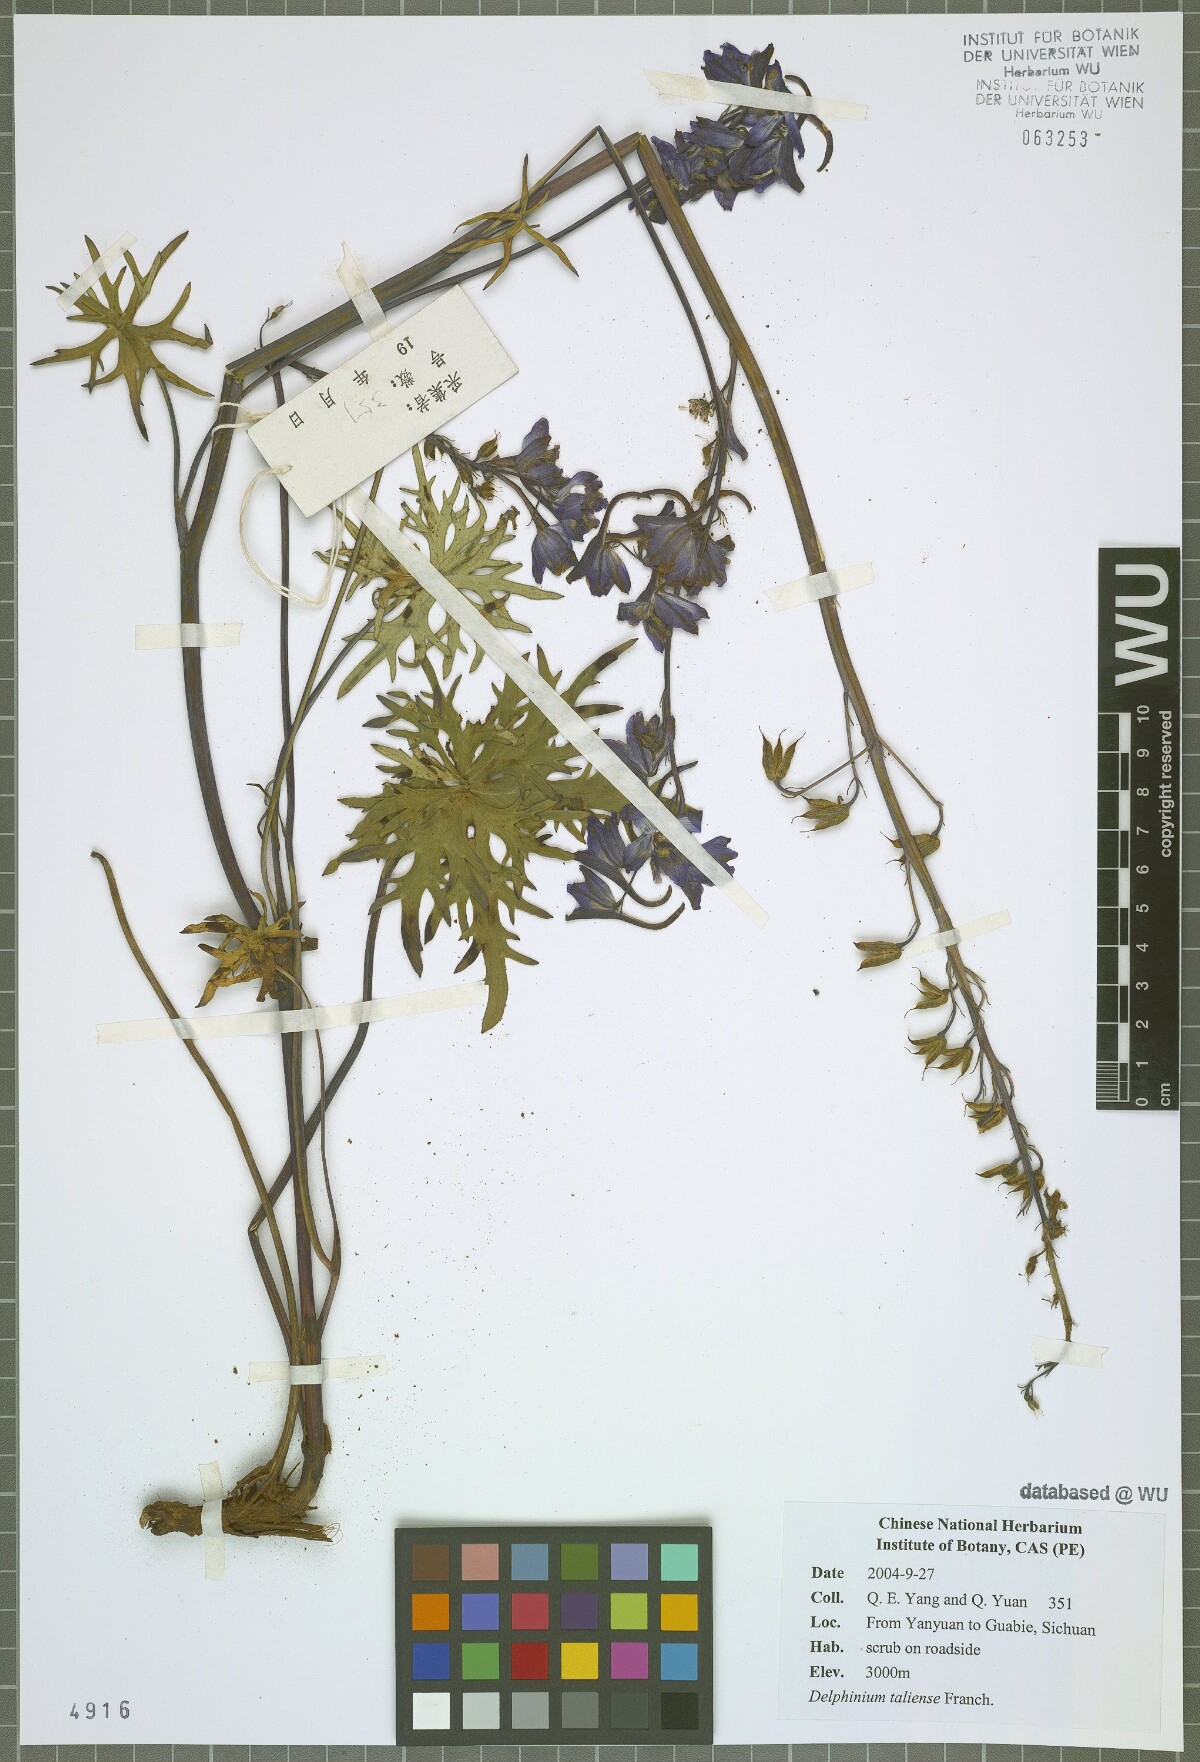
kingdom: Plantae
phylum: Tracheophyta
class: Magnoliopsida
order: Ranunculales
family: Ranunculaceae
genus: Delphinium
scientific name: Delphinium taliense
